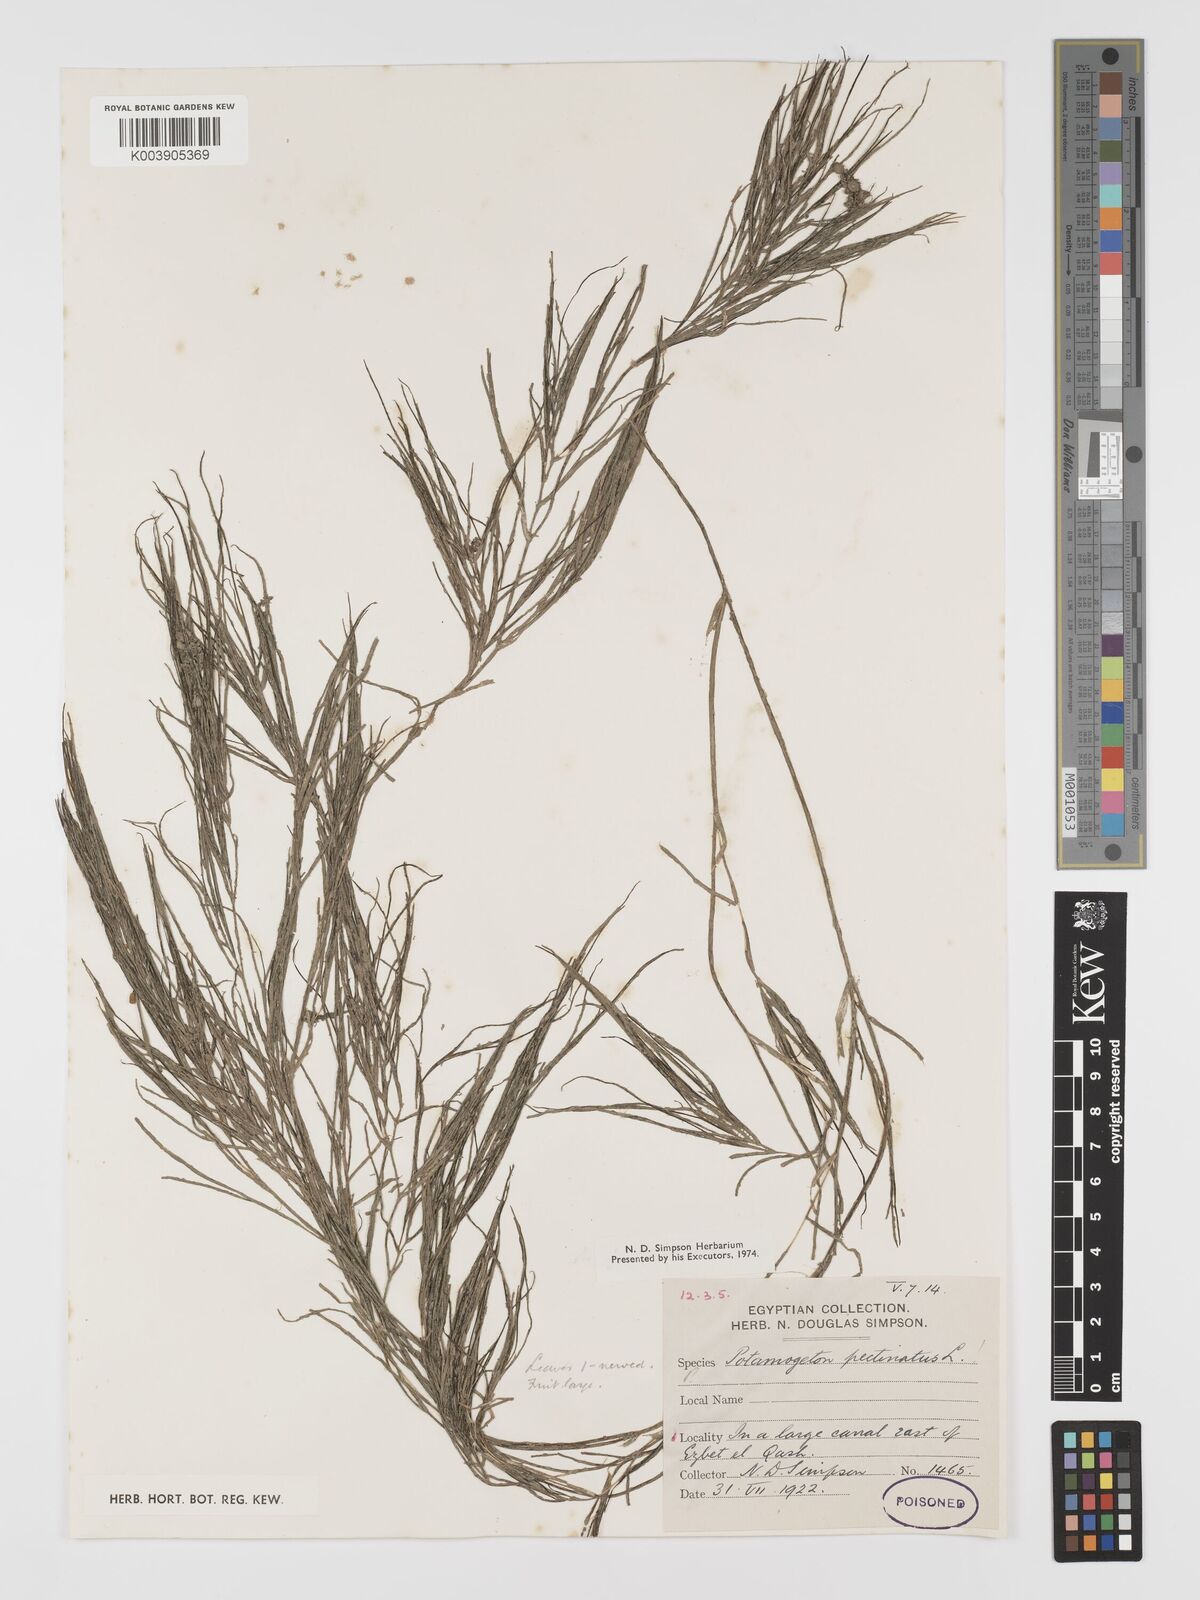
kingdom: Plantae
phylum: Tracheophyta
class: Liliopsida
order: Alismatales
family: Potamogetonaceae
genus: Stuckenia
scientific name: Stuckenia pectinata
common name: Sago pondweed
